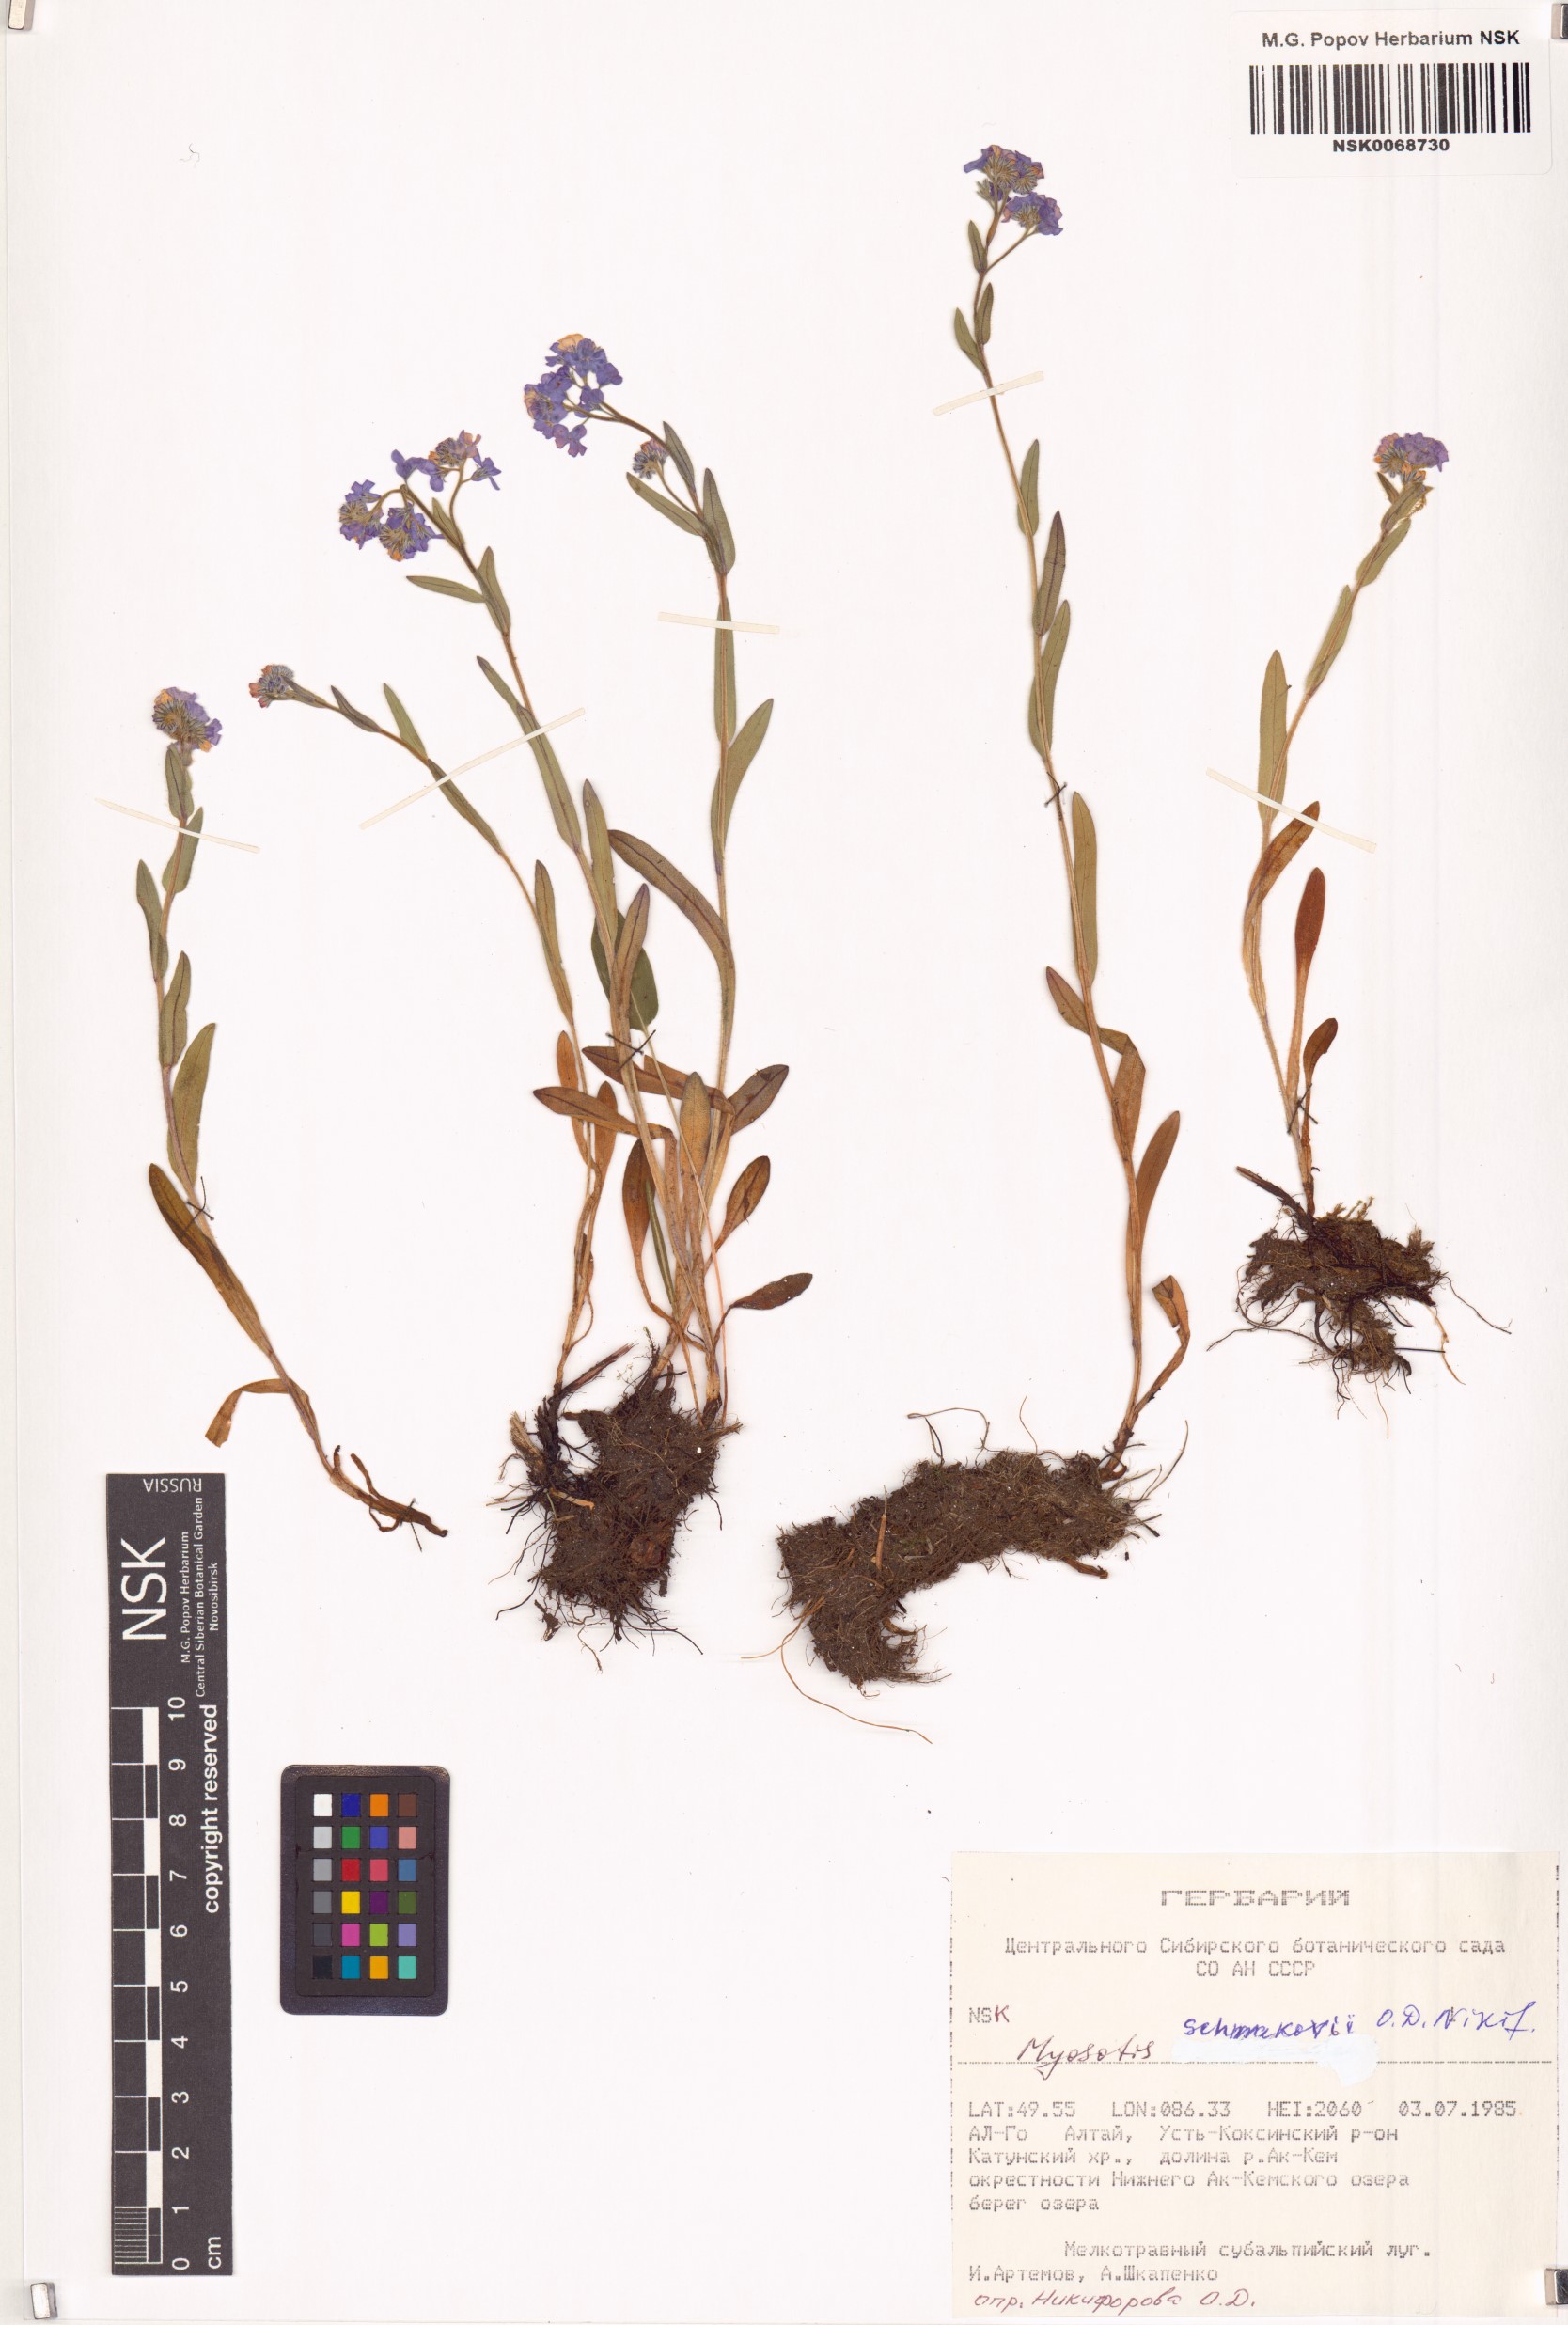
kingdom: Plantae
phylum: Tracheophyta
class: Magnoliopsida
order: Boraginales
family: Boraginaceae
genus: Myosotis
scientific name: Myosotis schmakovii
